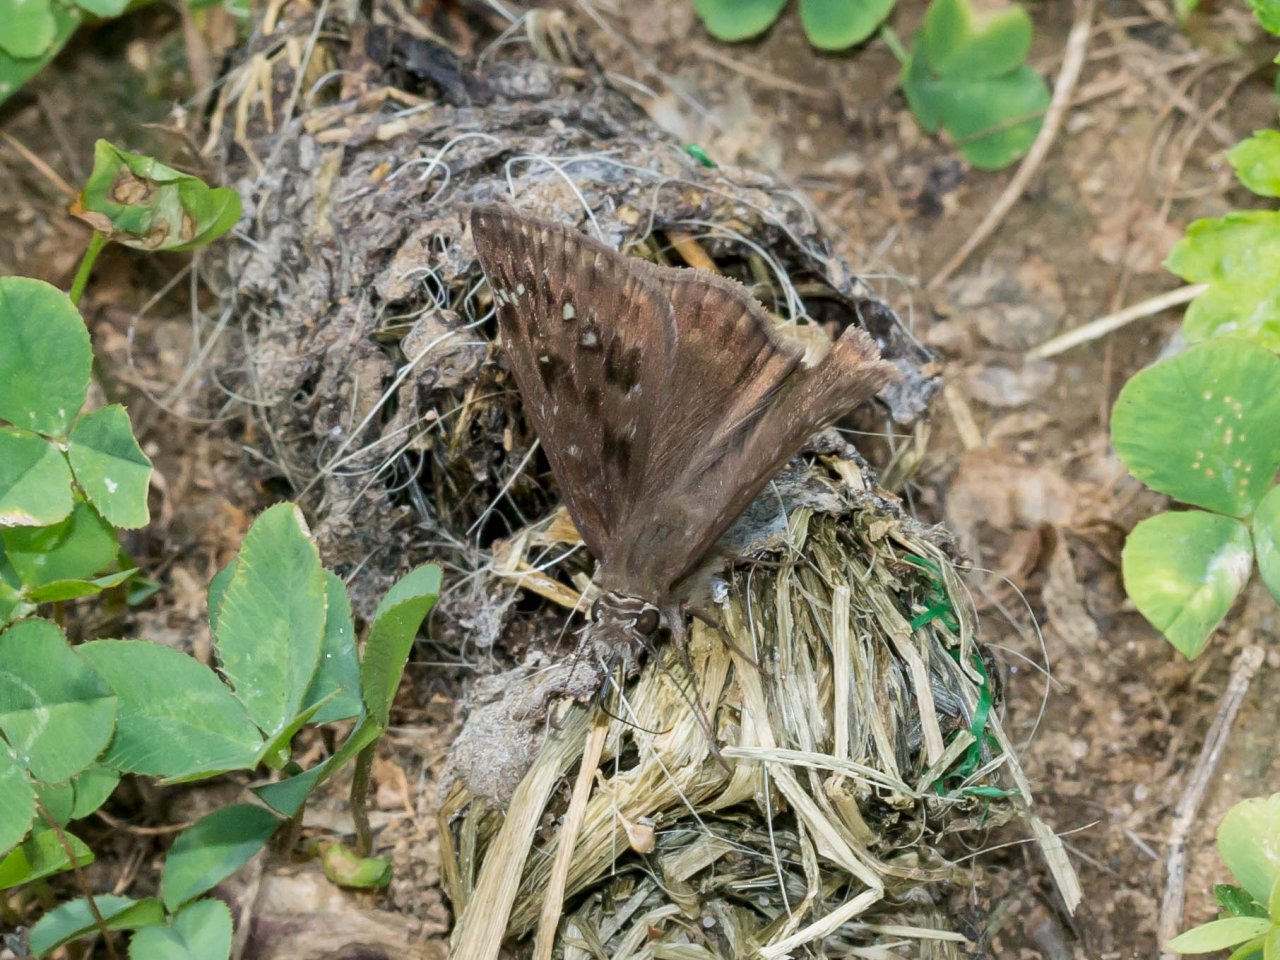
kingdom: Animalia
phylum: Arthropoda
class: Insecta
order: Lepidoptera
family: Hesperiidae
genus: Gesta
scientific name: Gesta
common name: Horace's Duskywing
